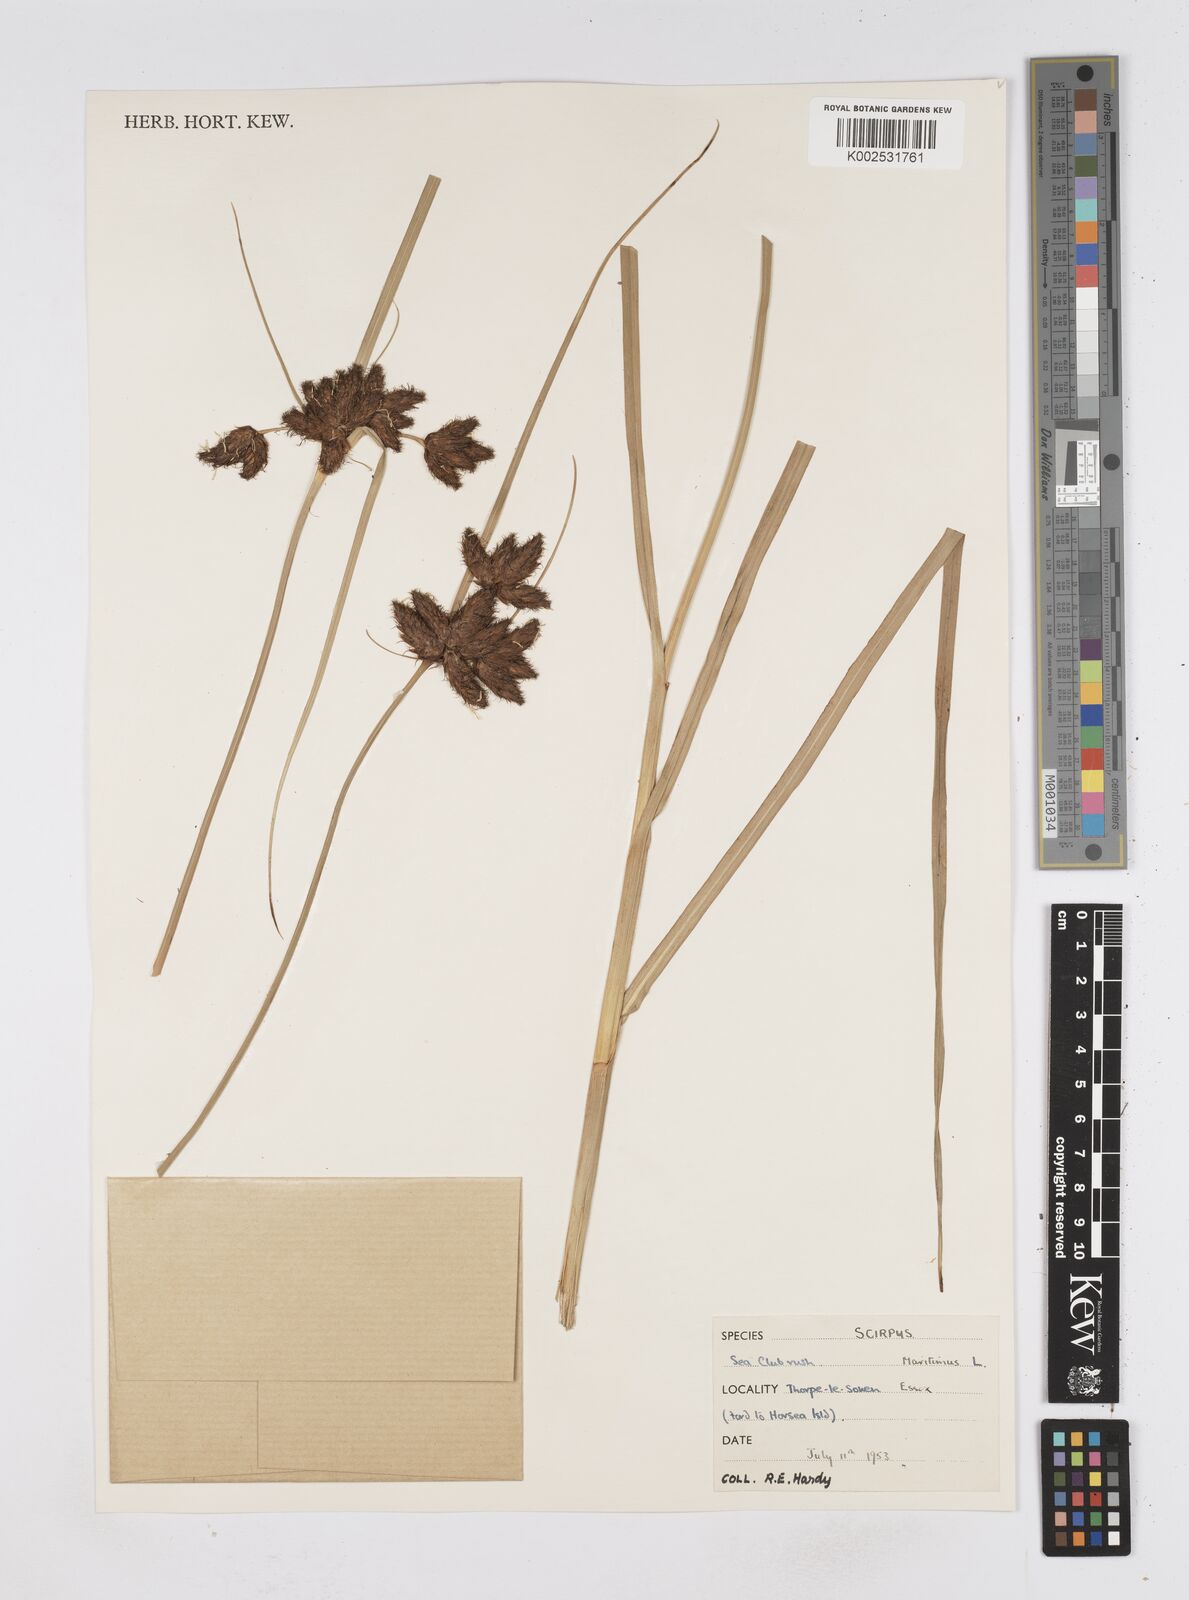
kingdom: Plantae
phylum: Tracheophyta
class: Liliopsida
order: Poales
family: Cyperaceae
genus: Bolboschoenus
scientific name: Bolboschoenus maritimus
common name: Sea club-rush
